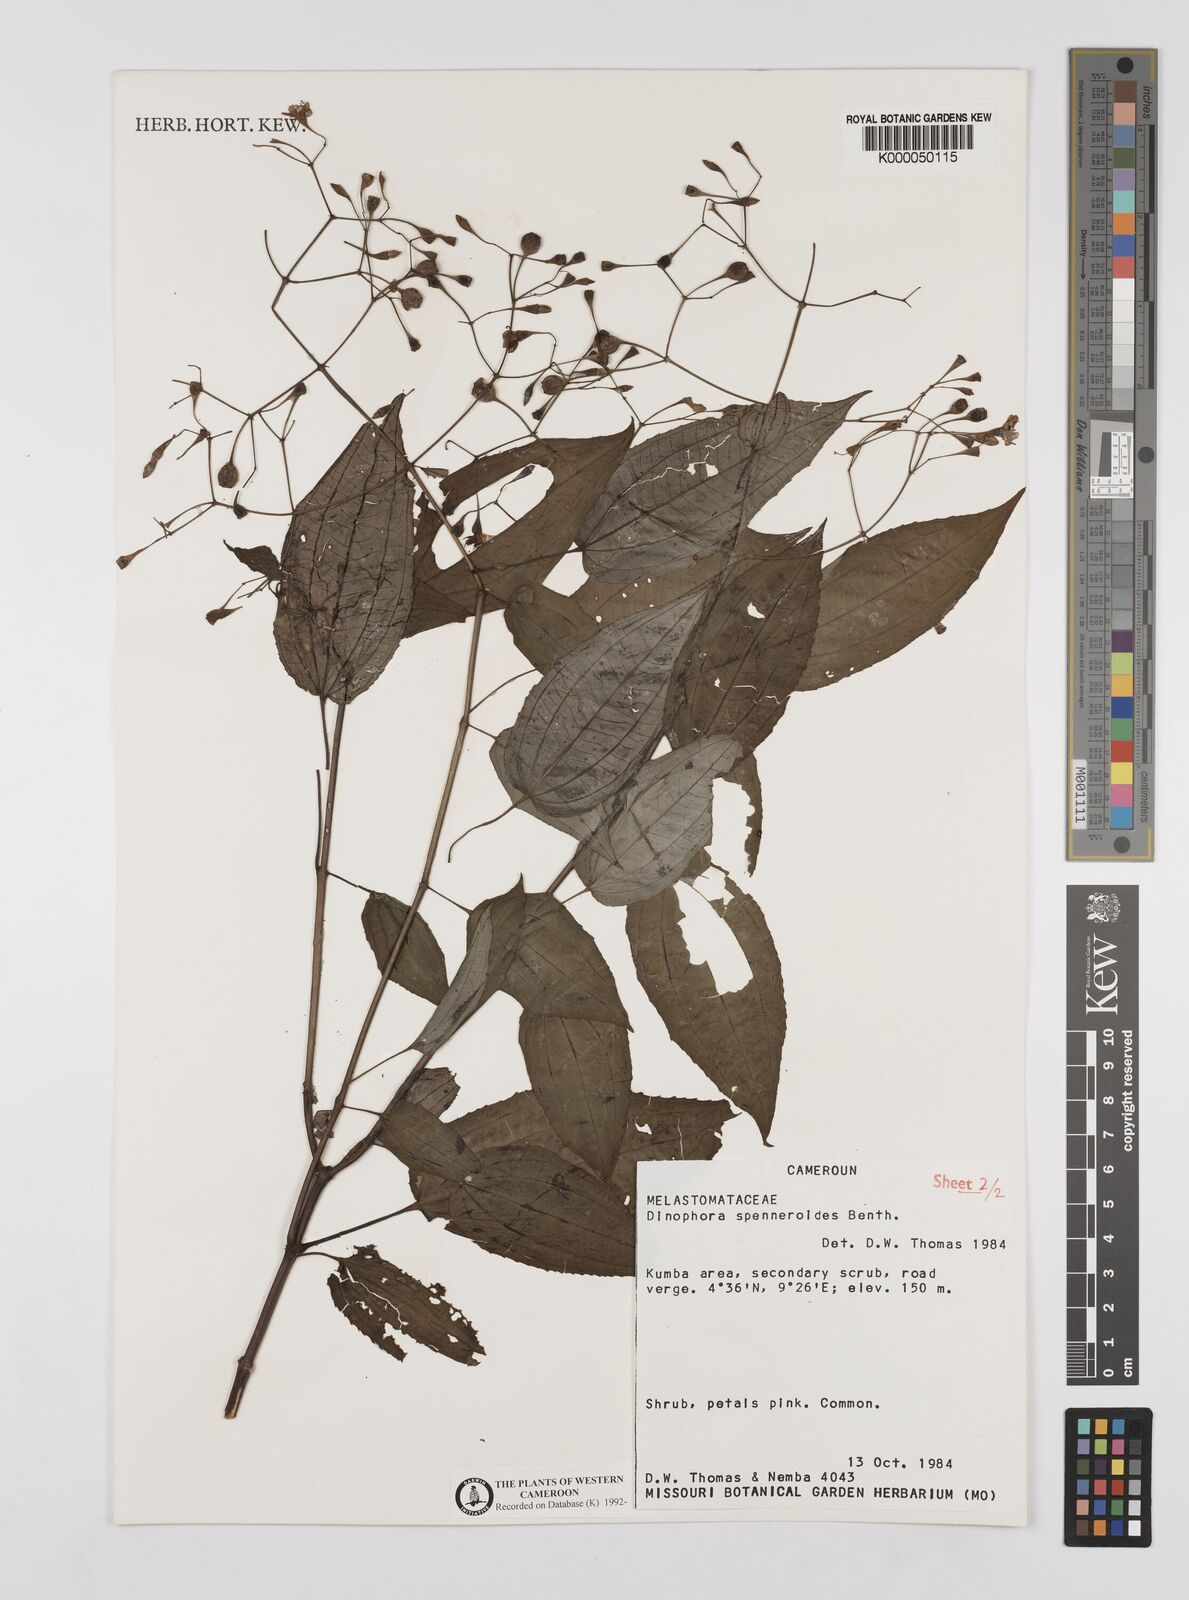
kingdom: Plantae
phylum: Tracheophyta
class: Magnoliopsida
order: Myrtales
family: Melastomataceae
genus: Dinophora
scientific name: Dinophora spenneroides
